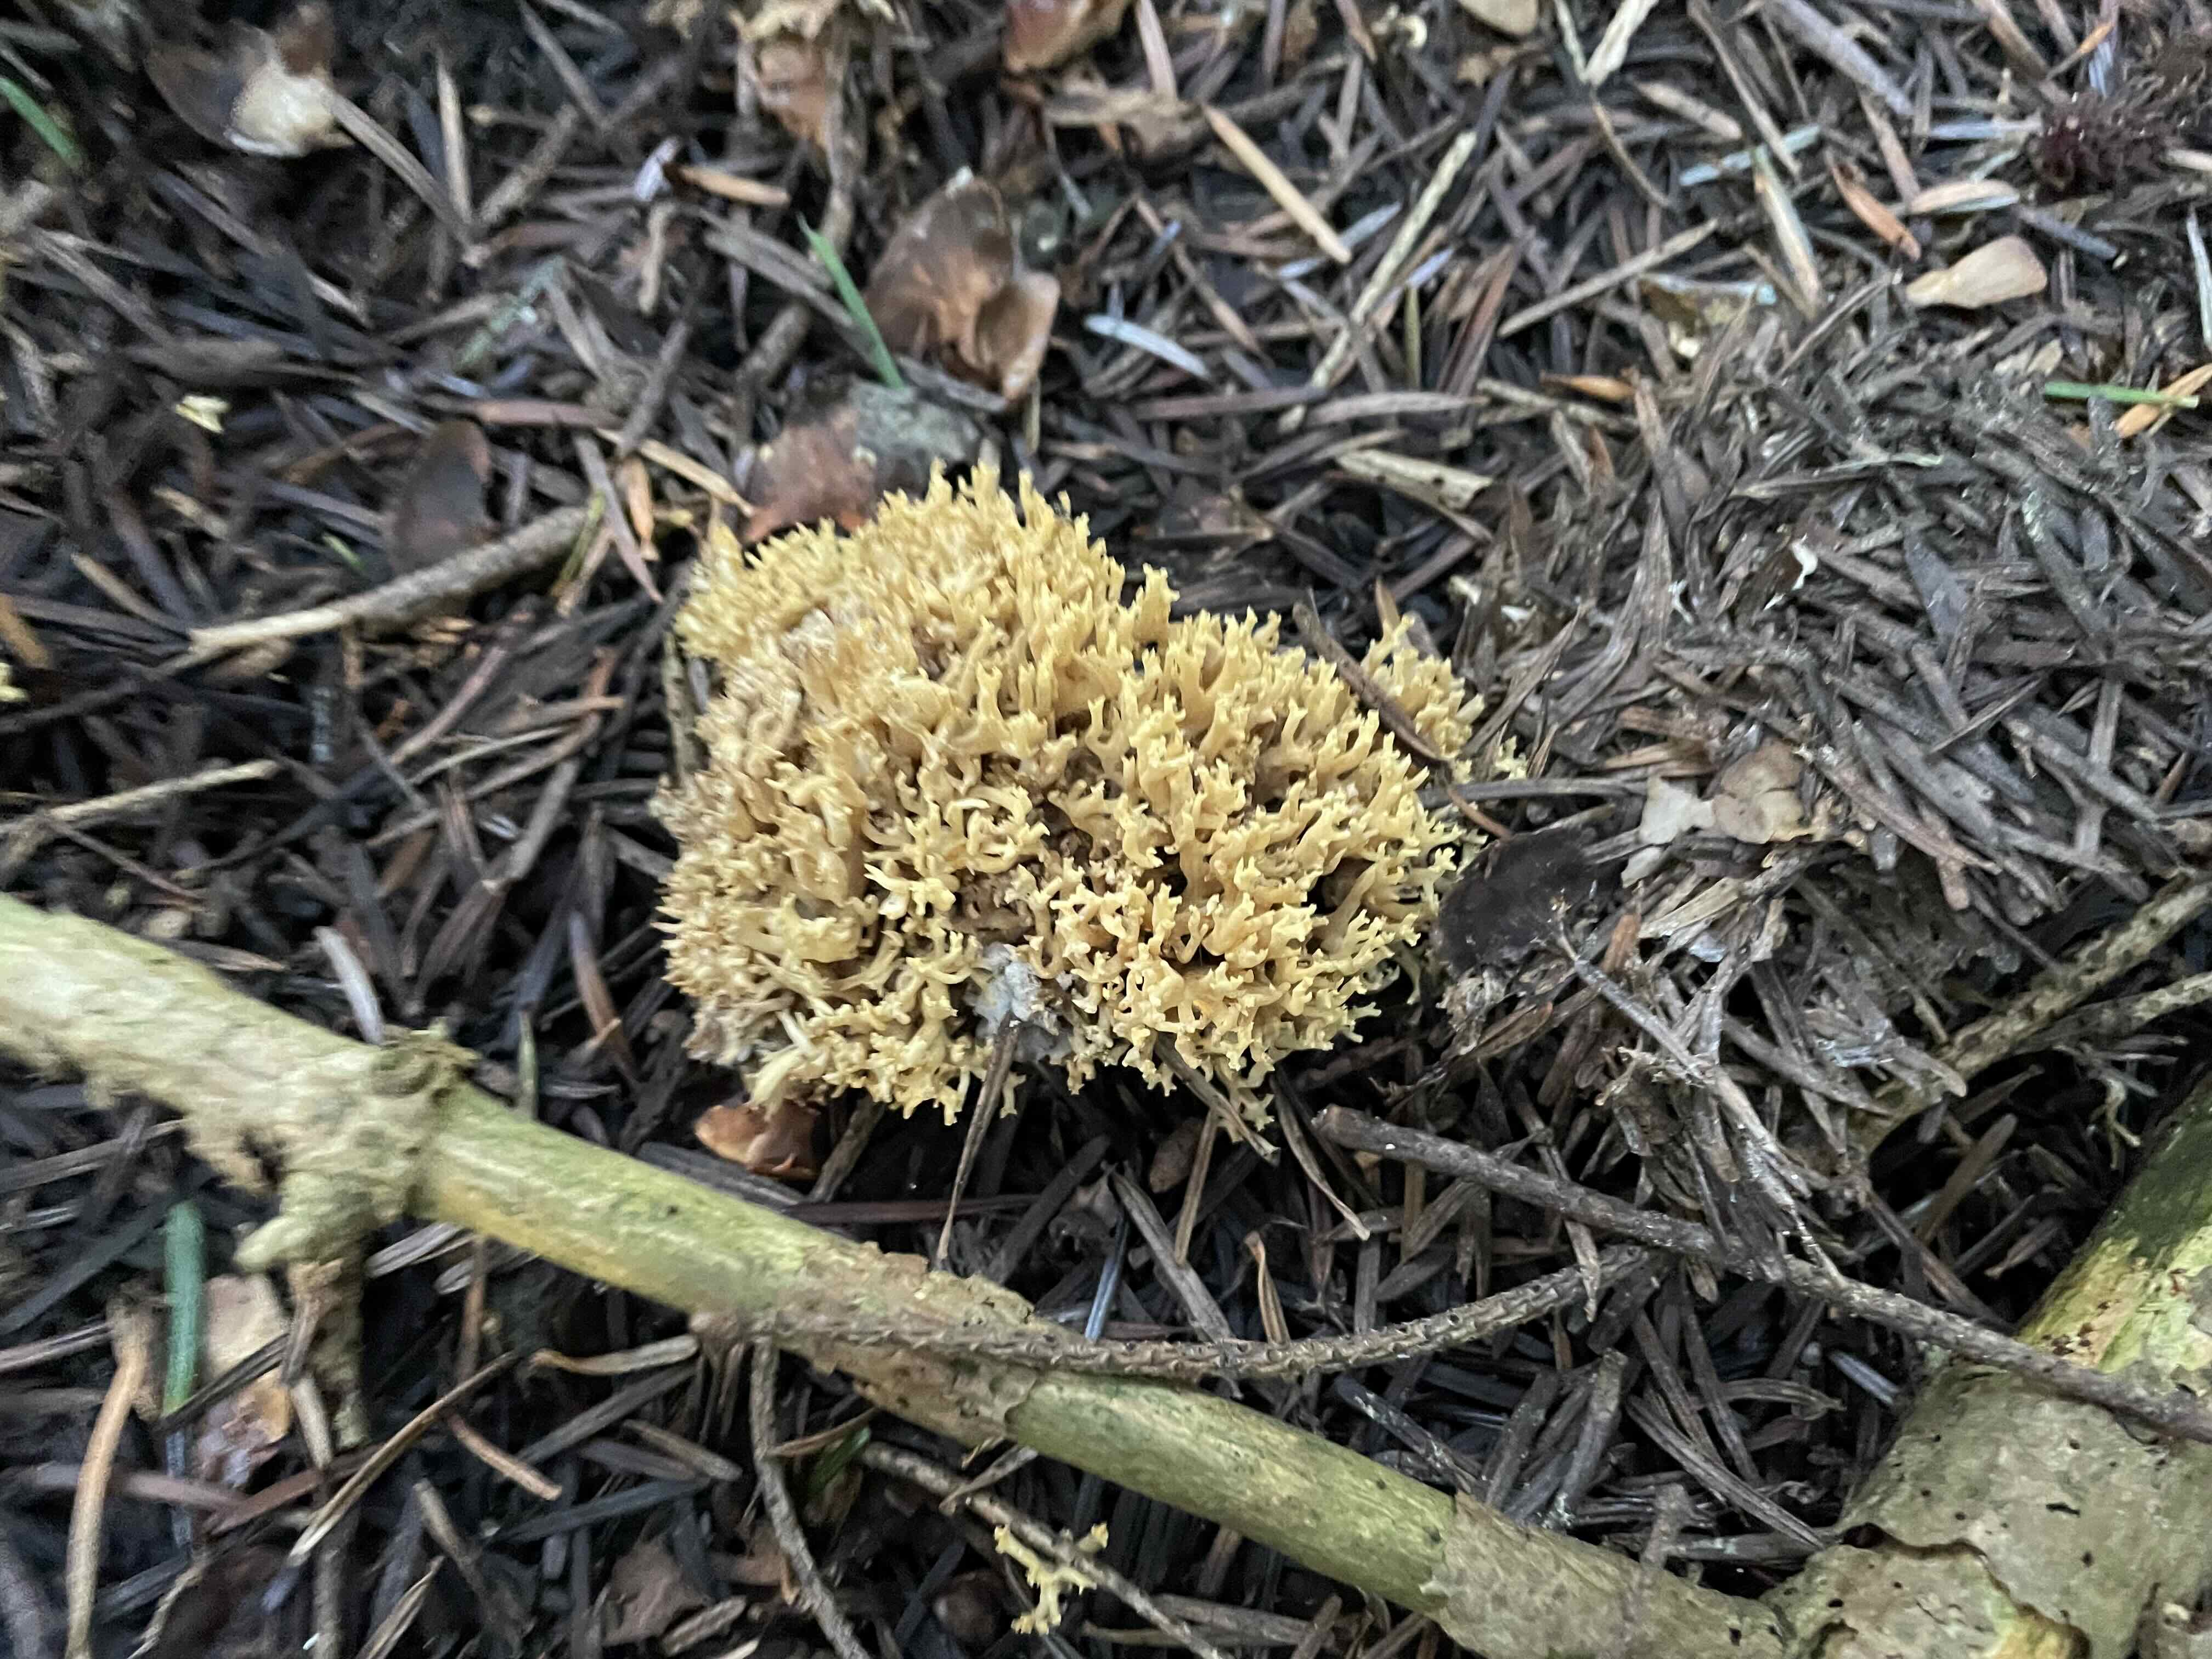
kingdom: Fungi
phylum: Basidiomycota
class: Agaricomycetes
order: Gomphales
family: Gomphaceae
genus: Phaeoclavulina
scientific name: Phaeoclavulina eumorpha
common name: gran-koralsvamp
